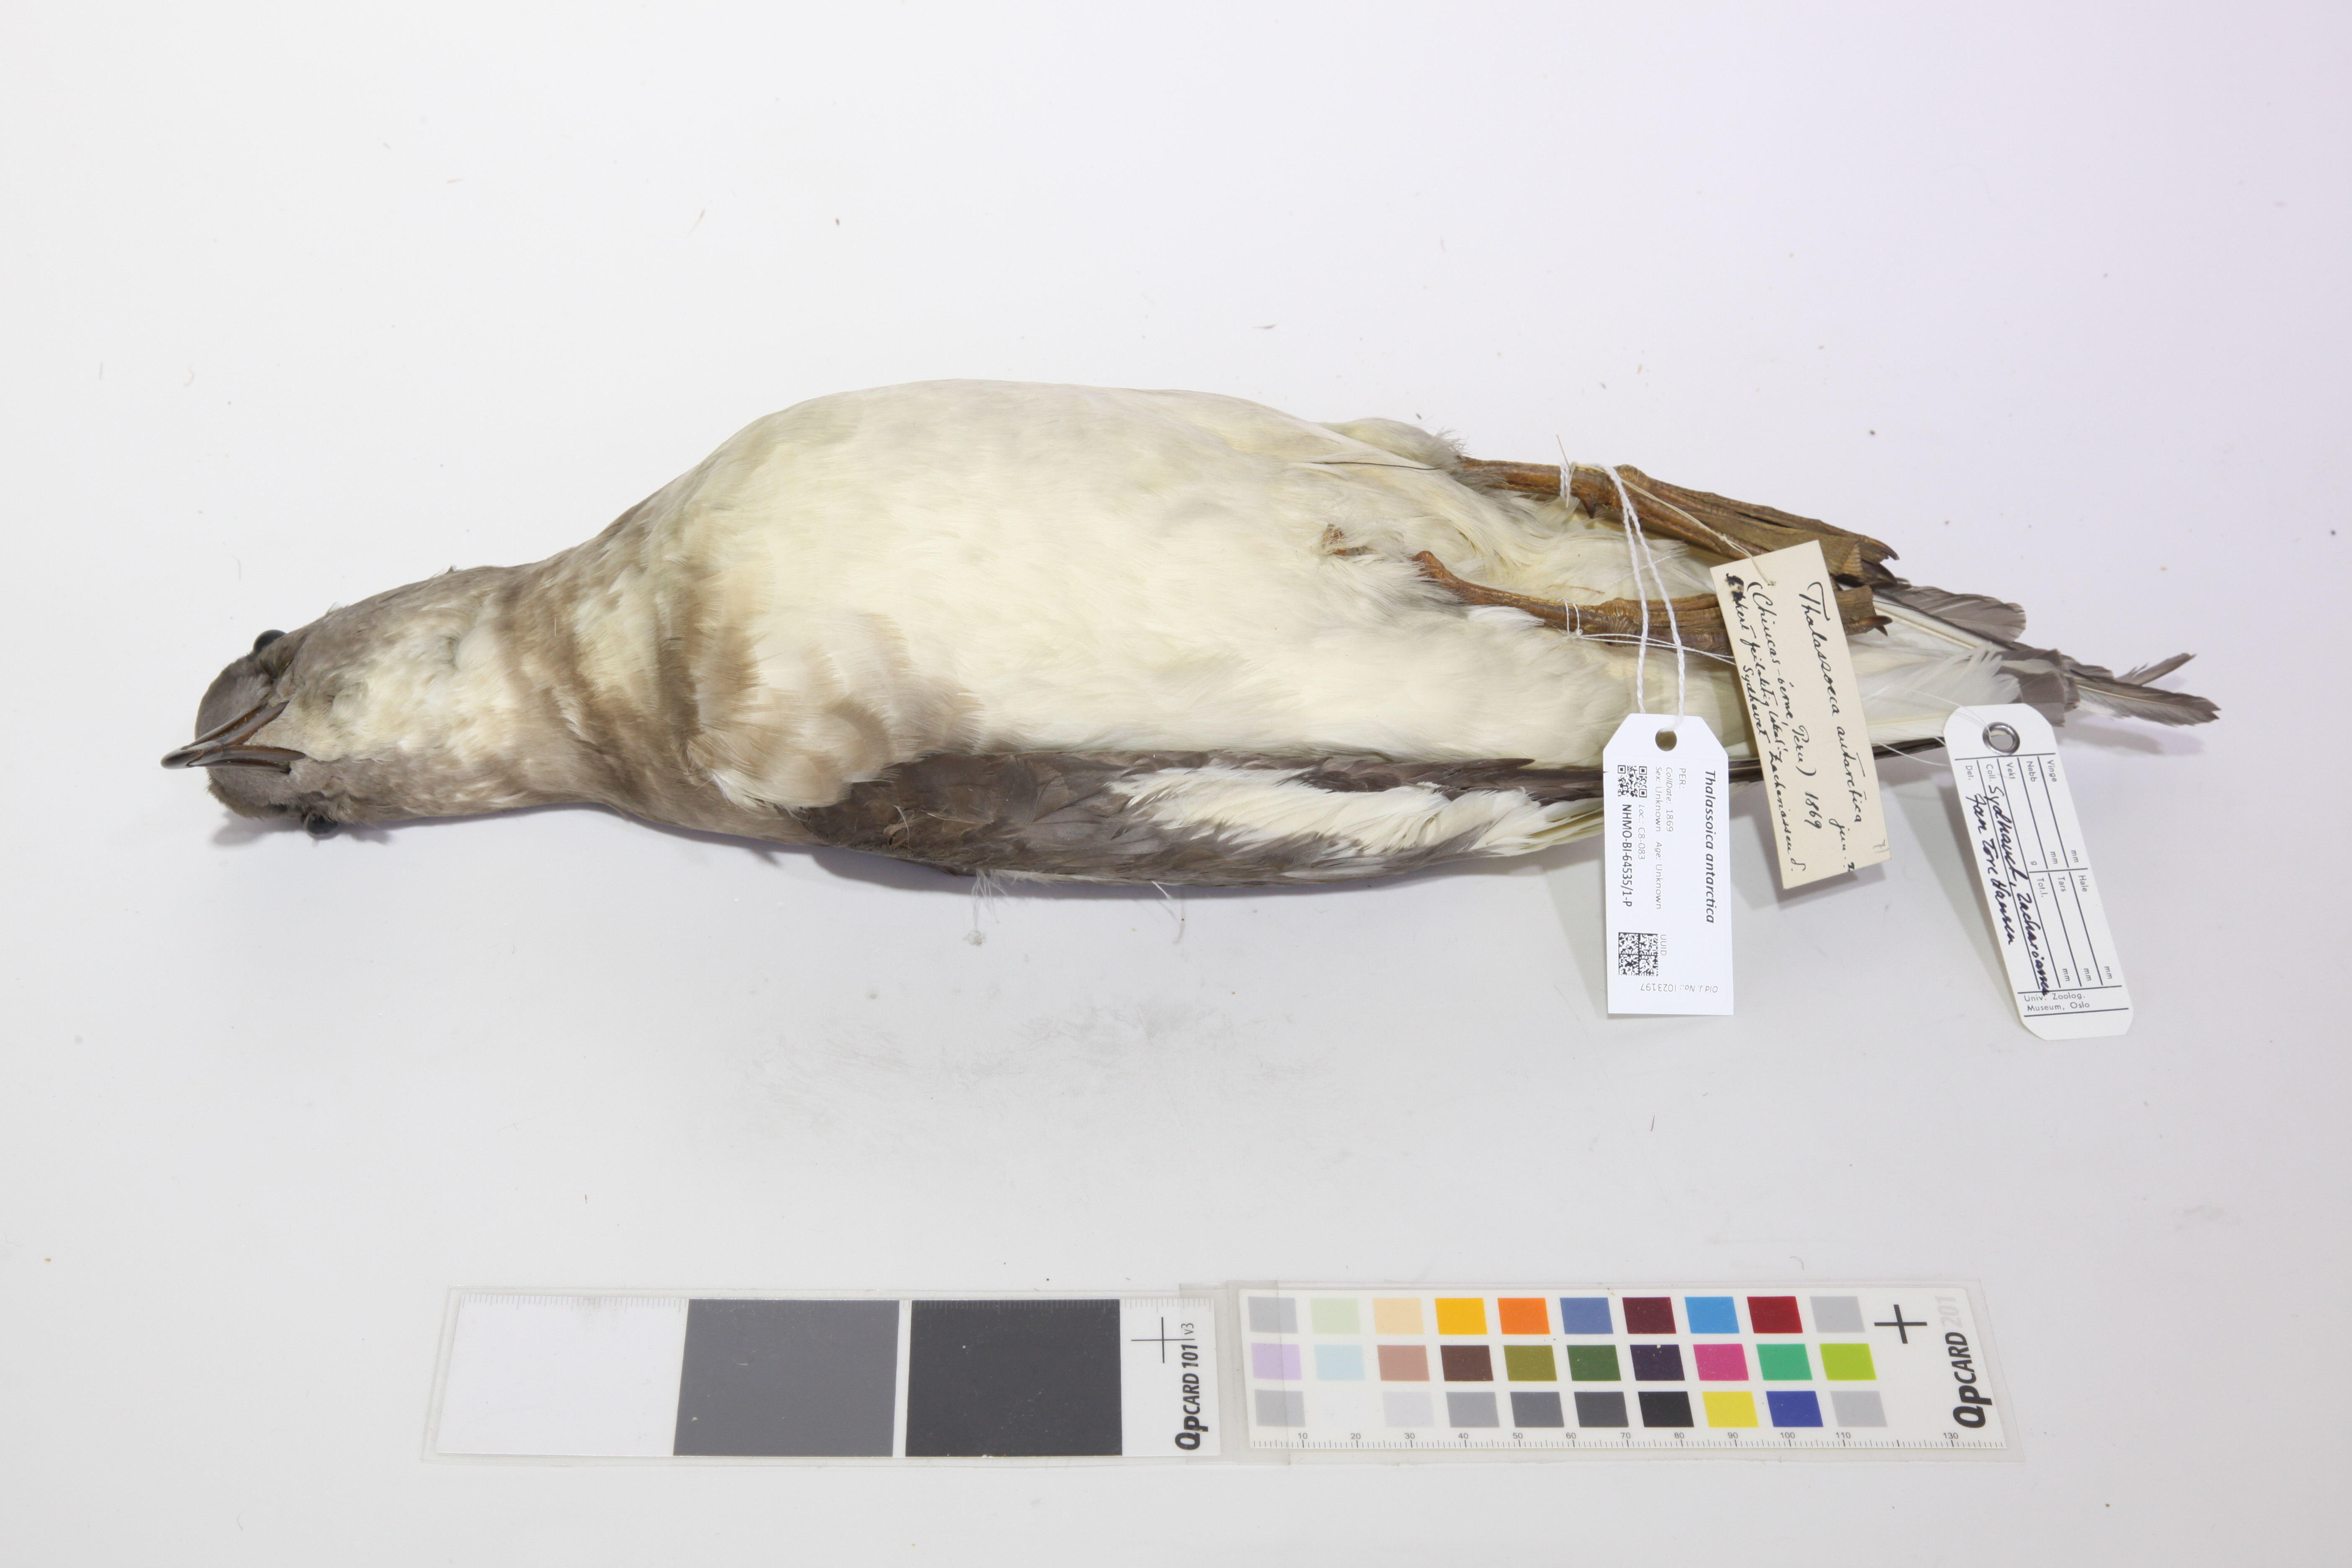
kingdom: Animalia
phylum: Chordata
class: Aves
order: Procellariiformes
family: Procellariidae
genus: Thalassoica
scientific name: Thalassoica antarctica
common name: Antarctic petrel
